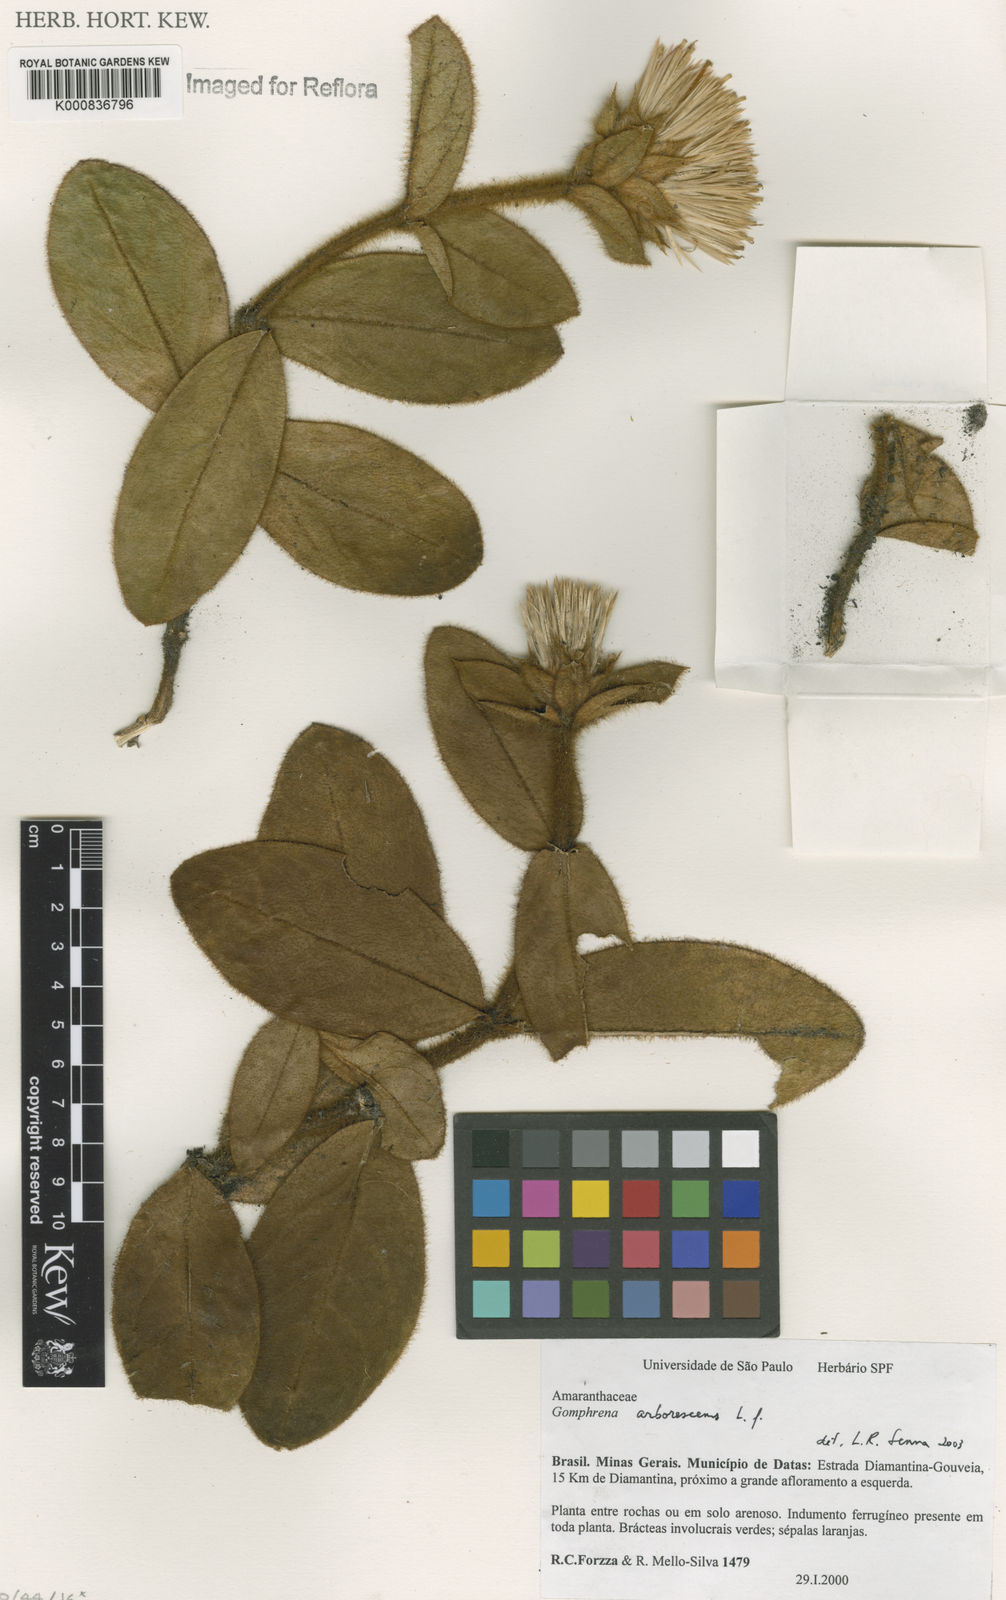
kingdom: Plantae
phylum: Tracheophyta
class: Magnoliopsida
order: Caryophyllales
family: Amaranthaceae
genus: Gomphrena
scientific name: Gomphrena arborescens
